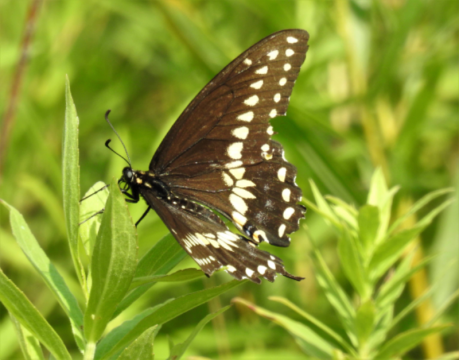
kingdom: Animalia
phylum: Arthropoda
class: Insecta
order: Lepidoptera
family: Papilionidae
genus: Papilio
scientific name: Papilio polyxenes
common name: Black Swallowtail
